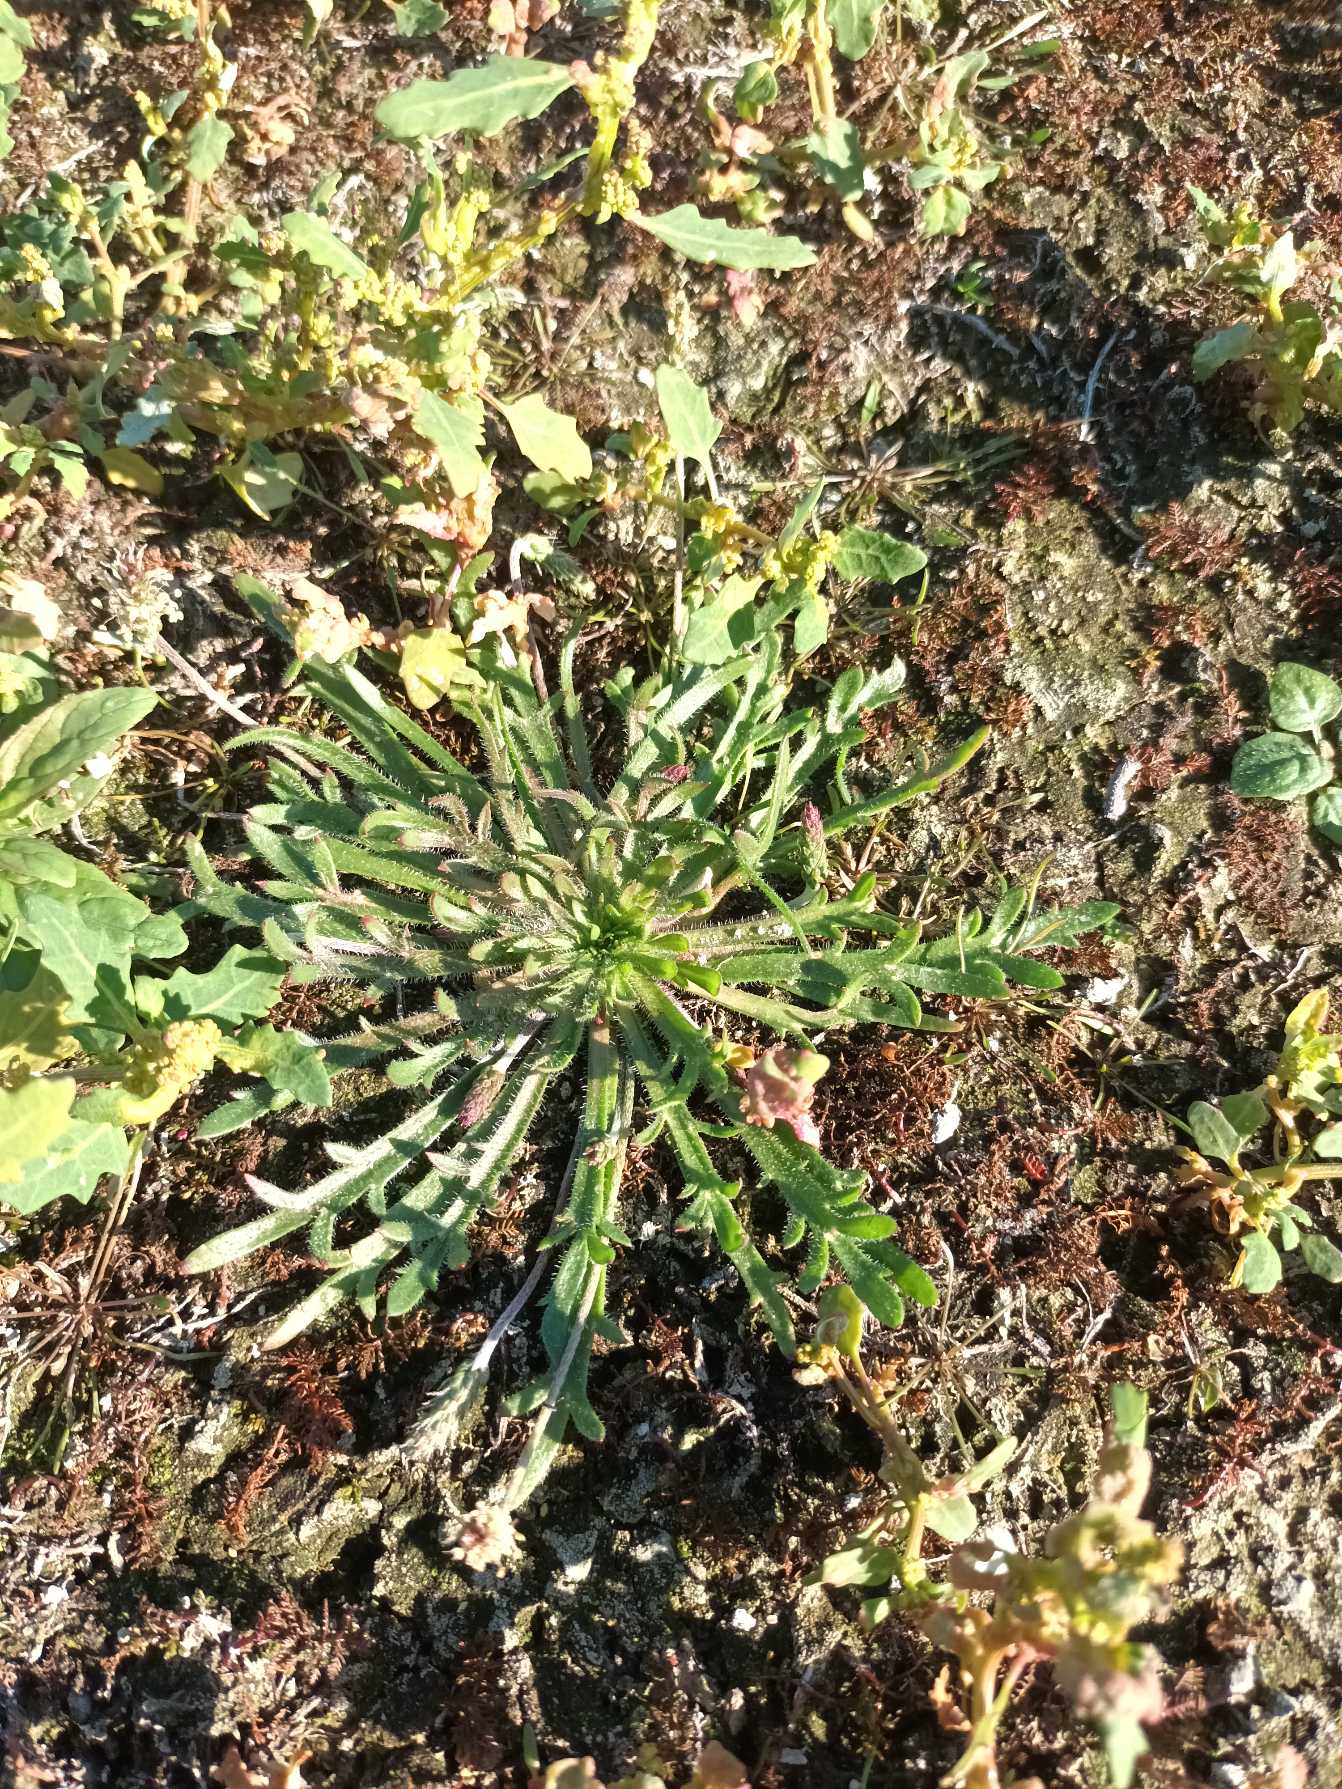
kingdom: Plantae
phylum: Tracheophyta
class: Magnoliopsida
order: Lamiales
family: Plantaginaceae
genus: Plantago
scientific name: Plantago coronopus
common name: Fliget vejbred
